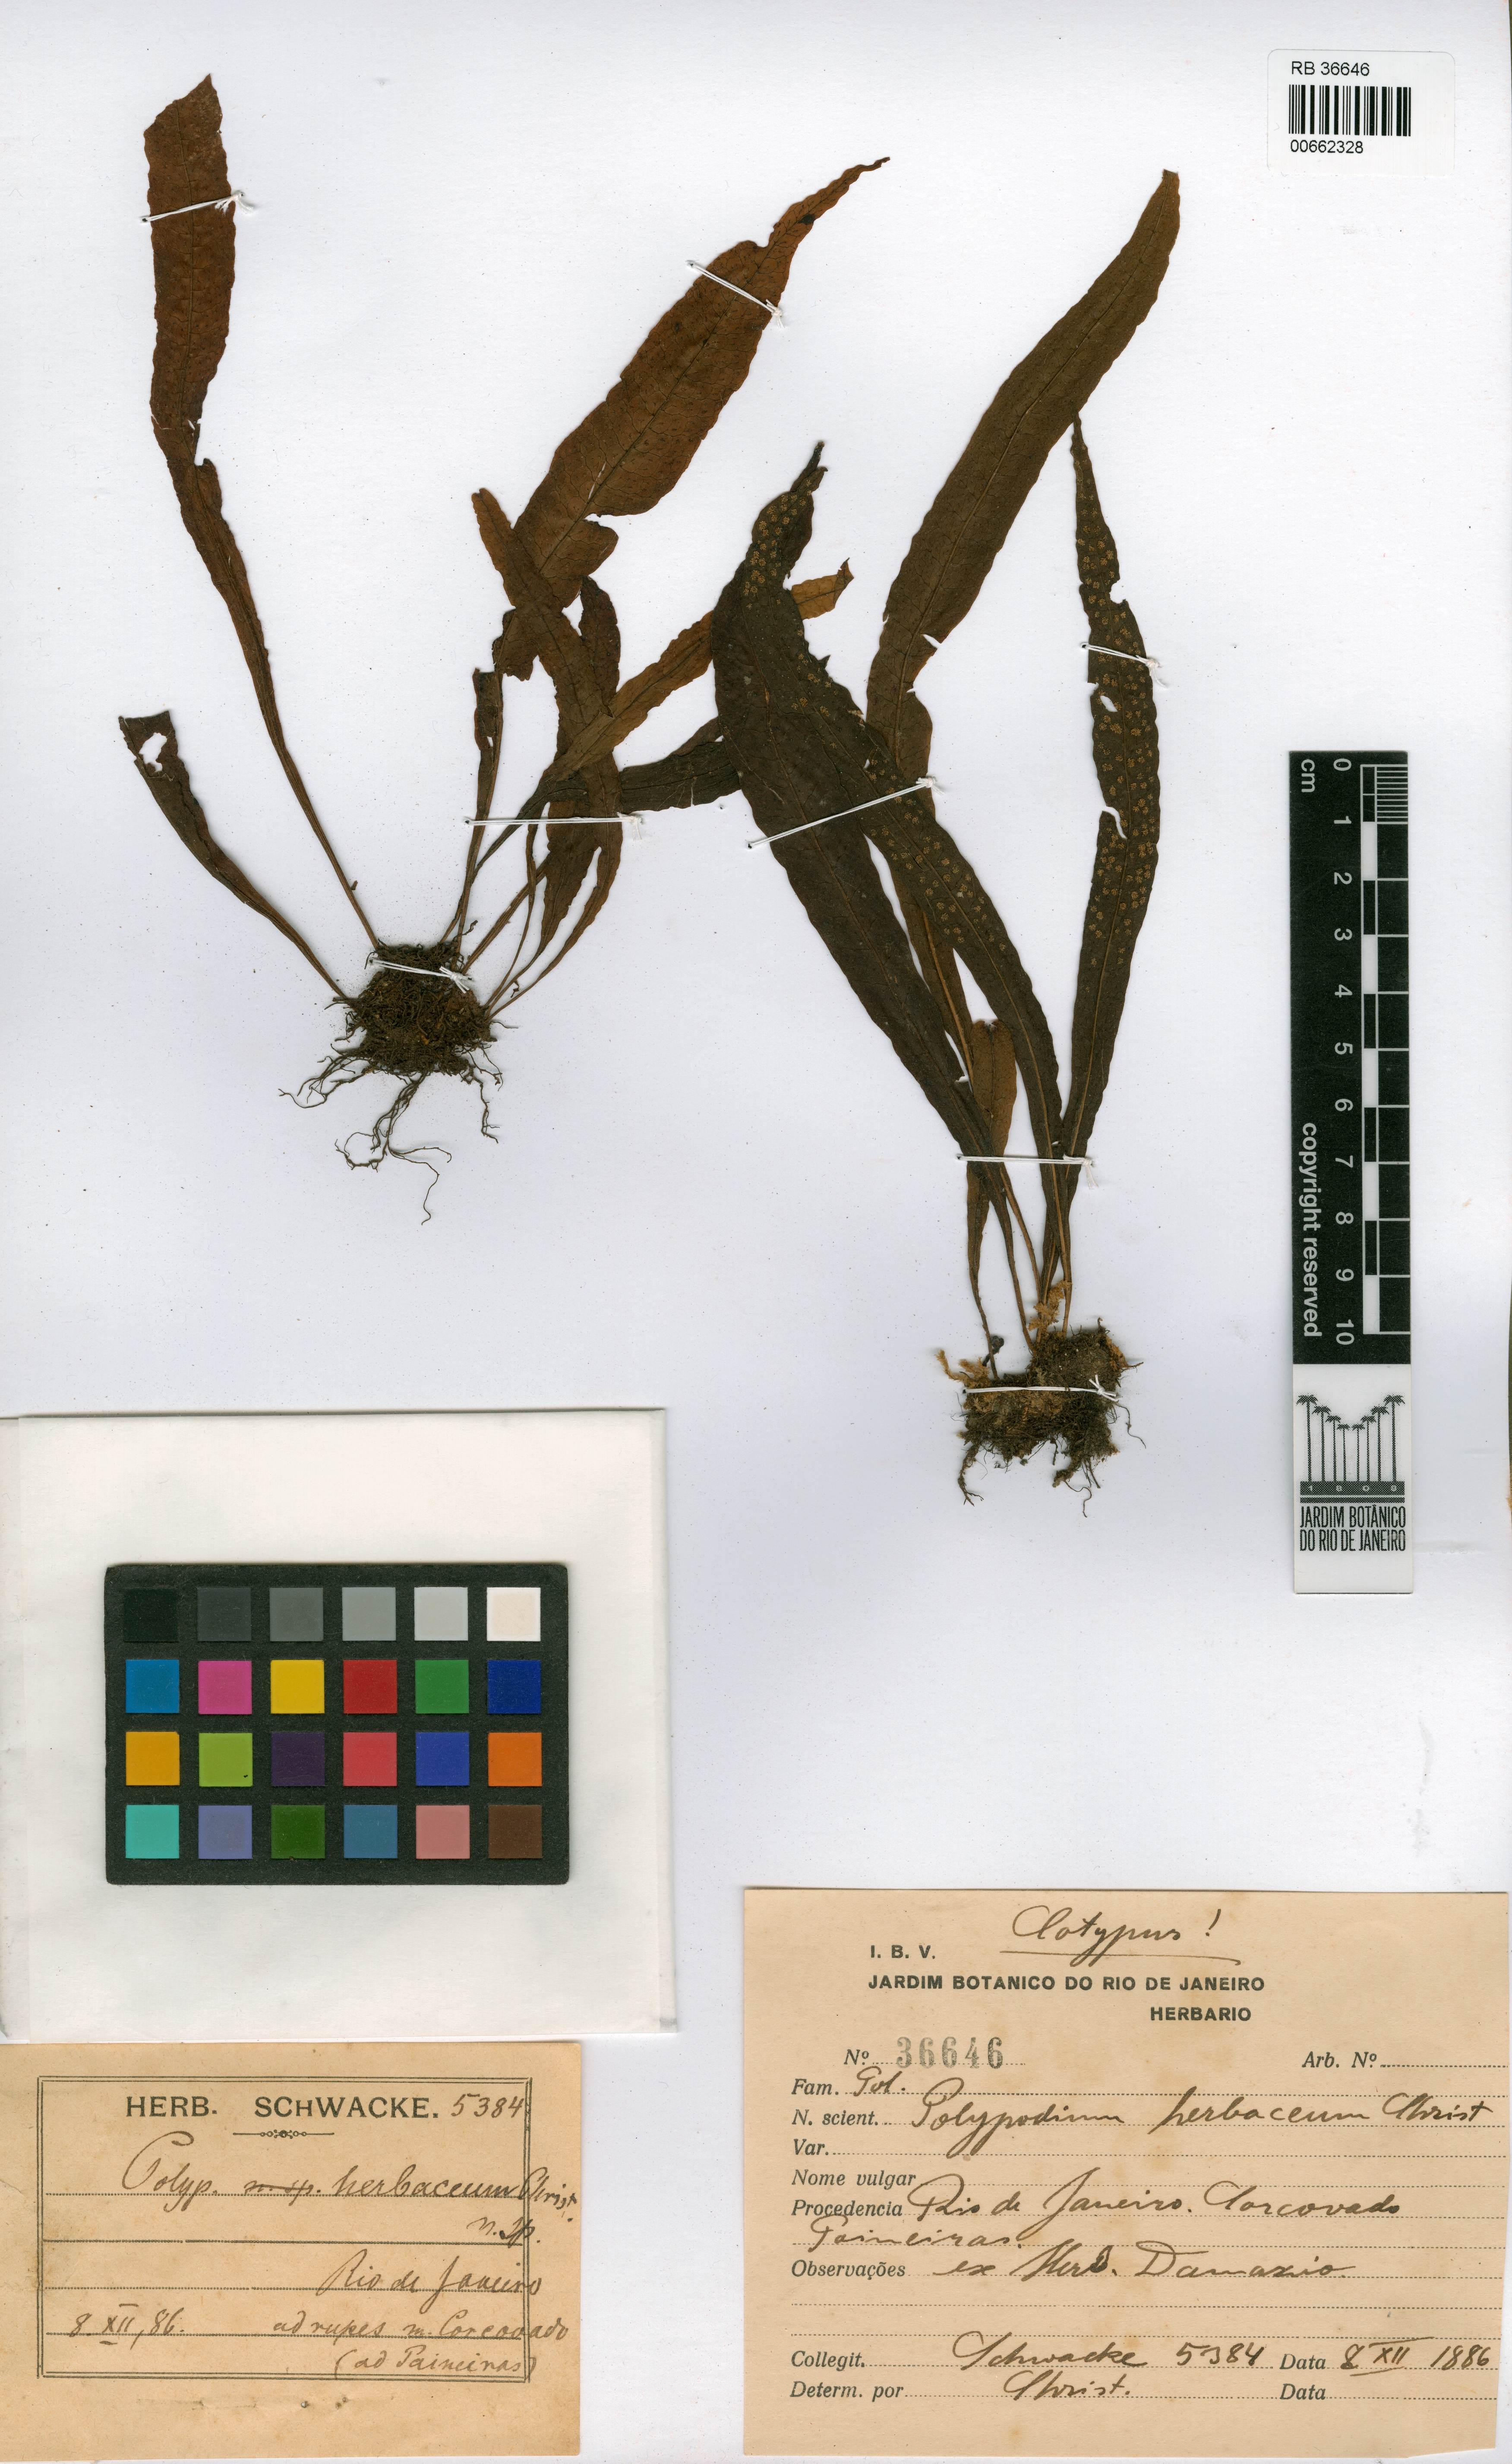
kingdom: Plantae
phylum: Tracheophyta
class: Polypodiopsida
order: Polypodiales
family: Polypodiaceae
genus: Campyloneurum
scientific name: Campyloneurum herbaceum
